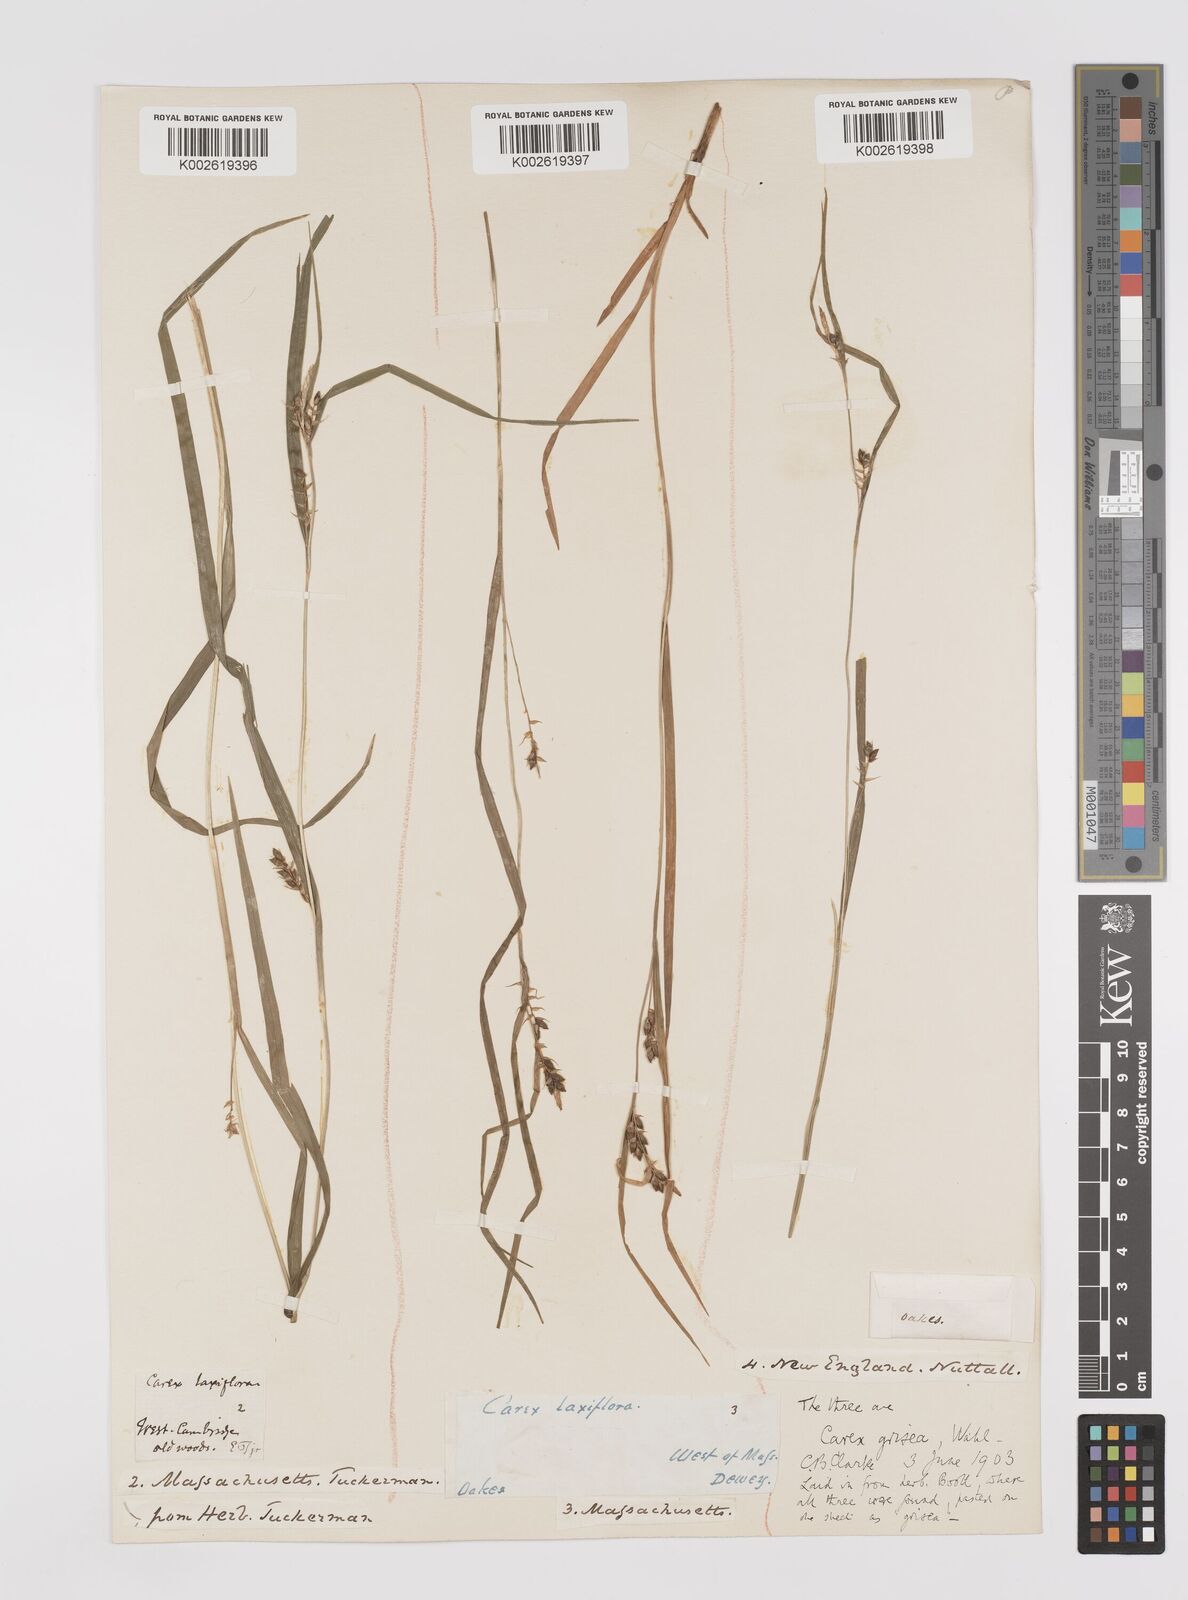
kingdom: Plantae
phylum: Tracheophyta
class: Liliopsida
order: Poales
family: Cyperaceae
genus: Carex
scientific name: Carex grisea
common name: Eastern narrow-leaved sedge
